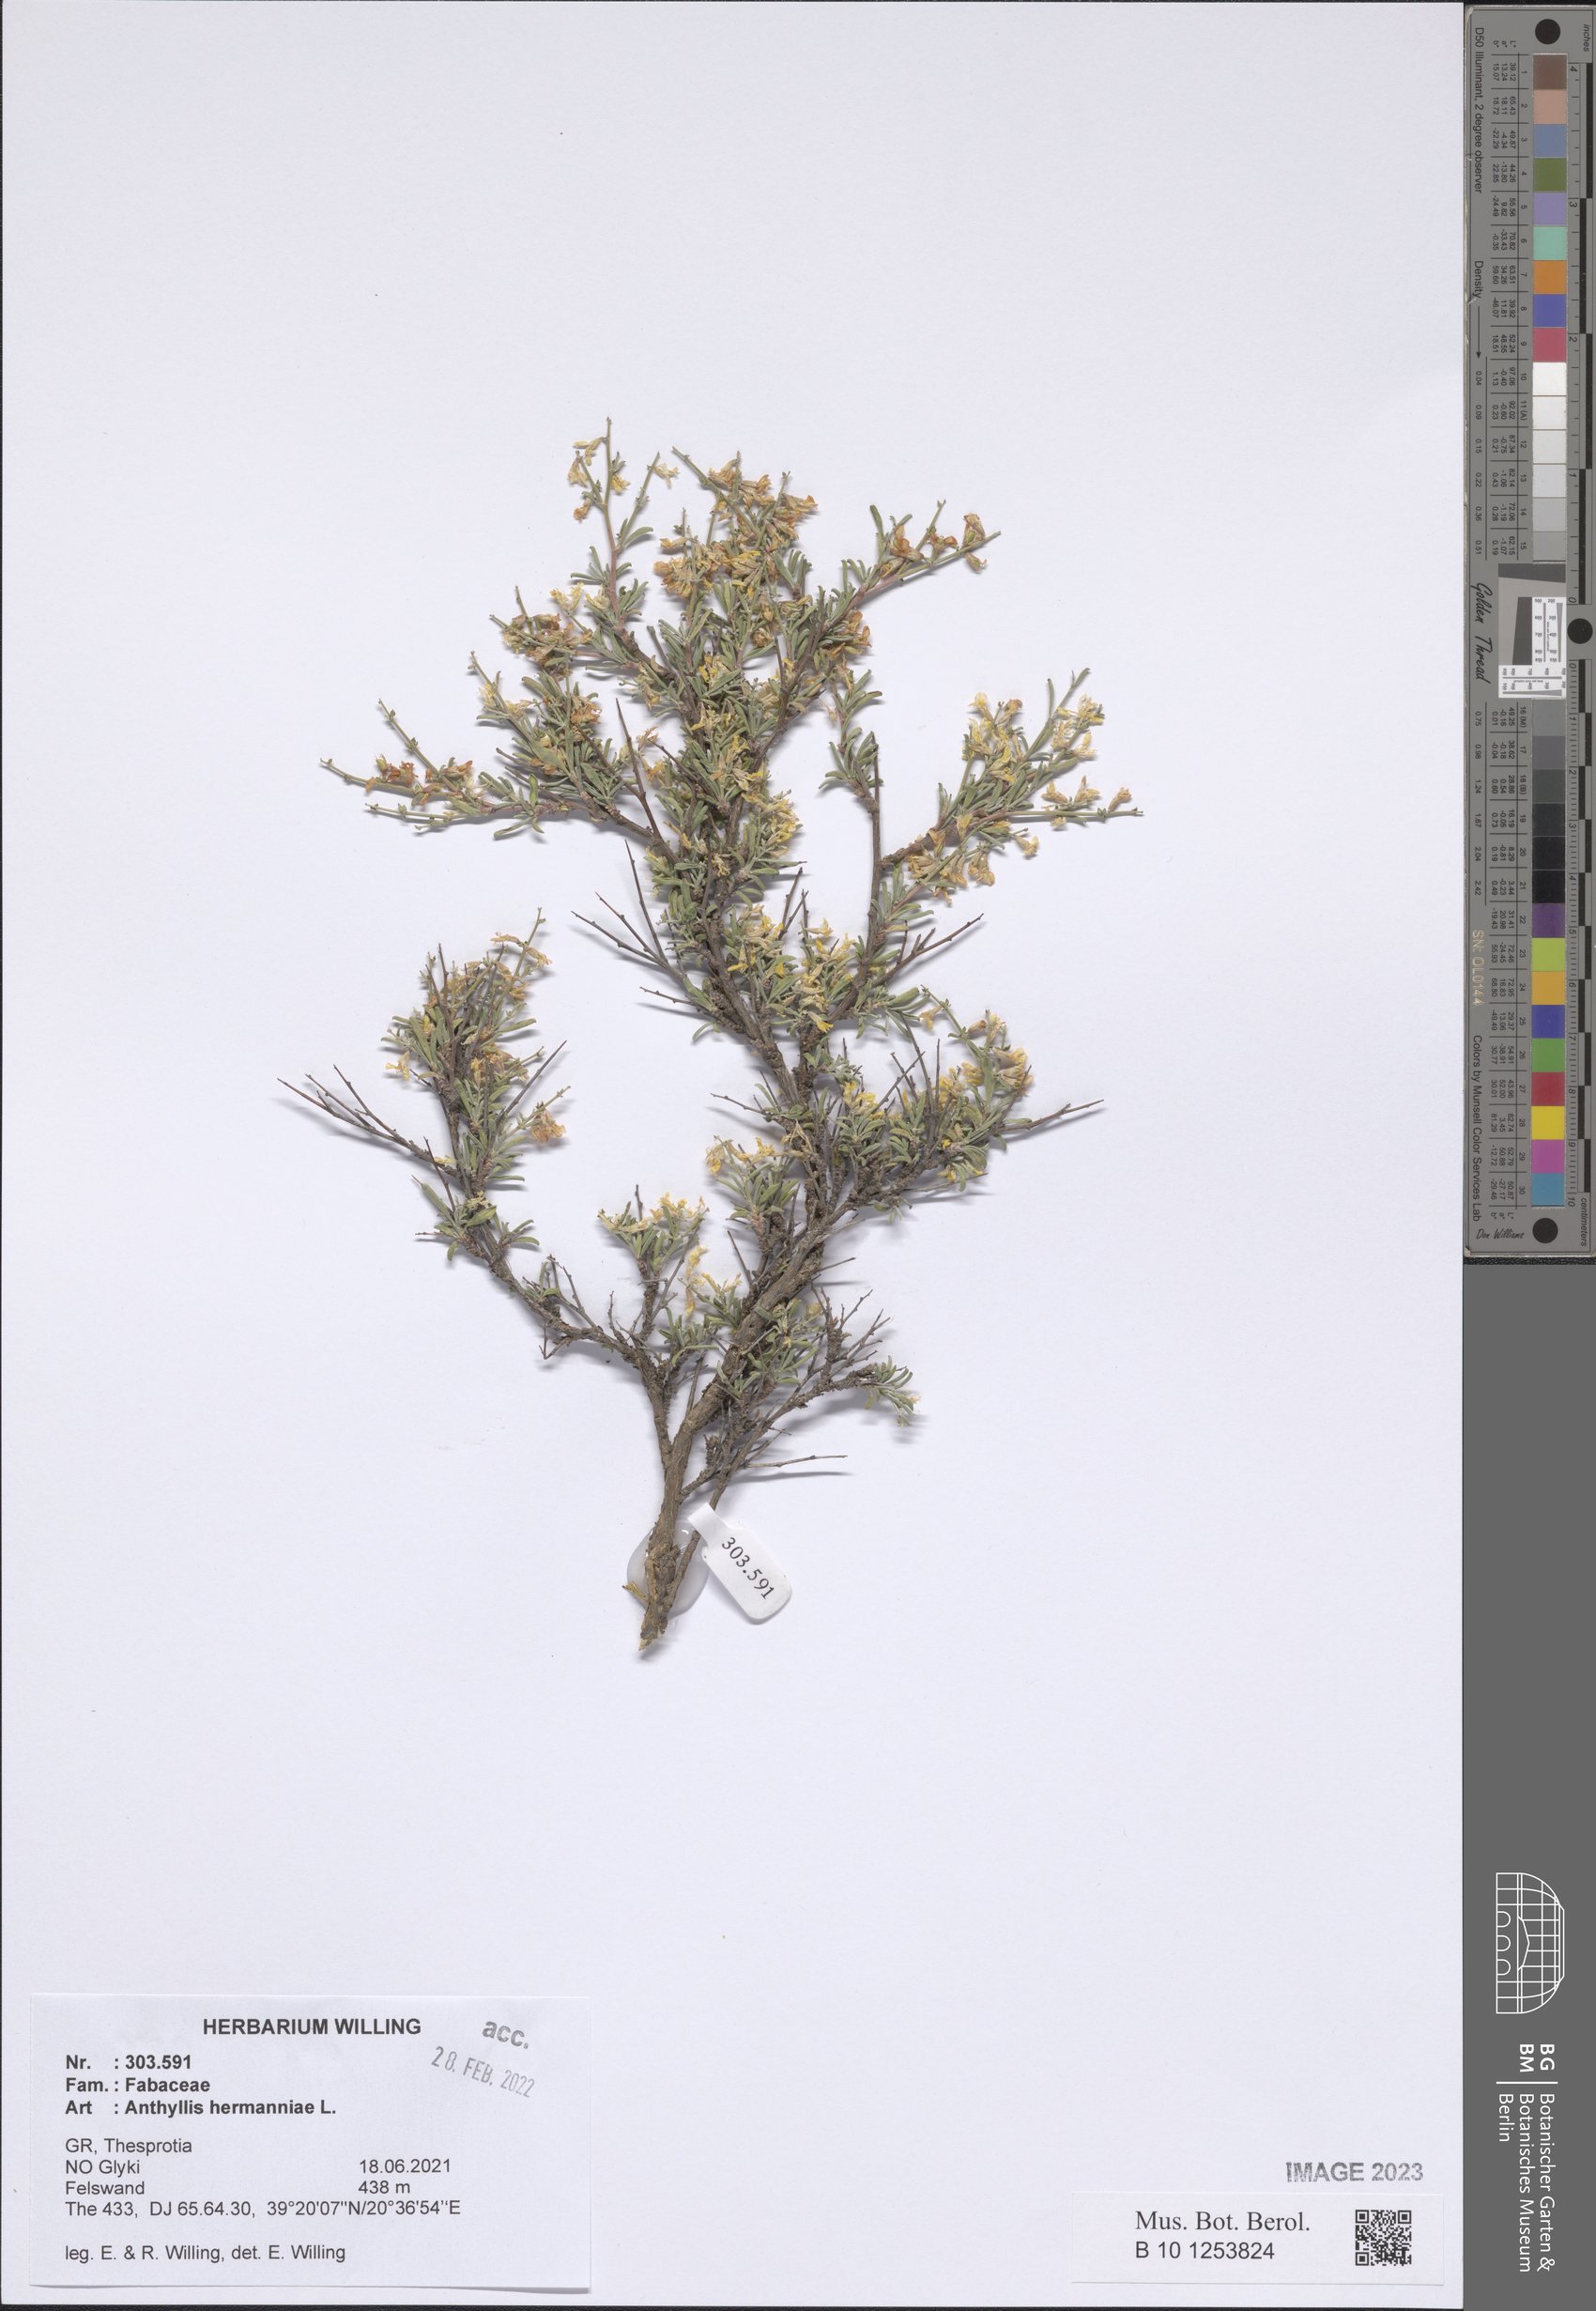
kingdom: Plantae
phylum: Tracheophyta
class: Magnoliopsida
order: Fabales
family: Fabaceae
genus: Anthyllis
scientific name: Anthyllis hermanniae
